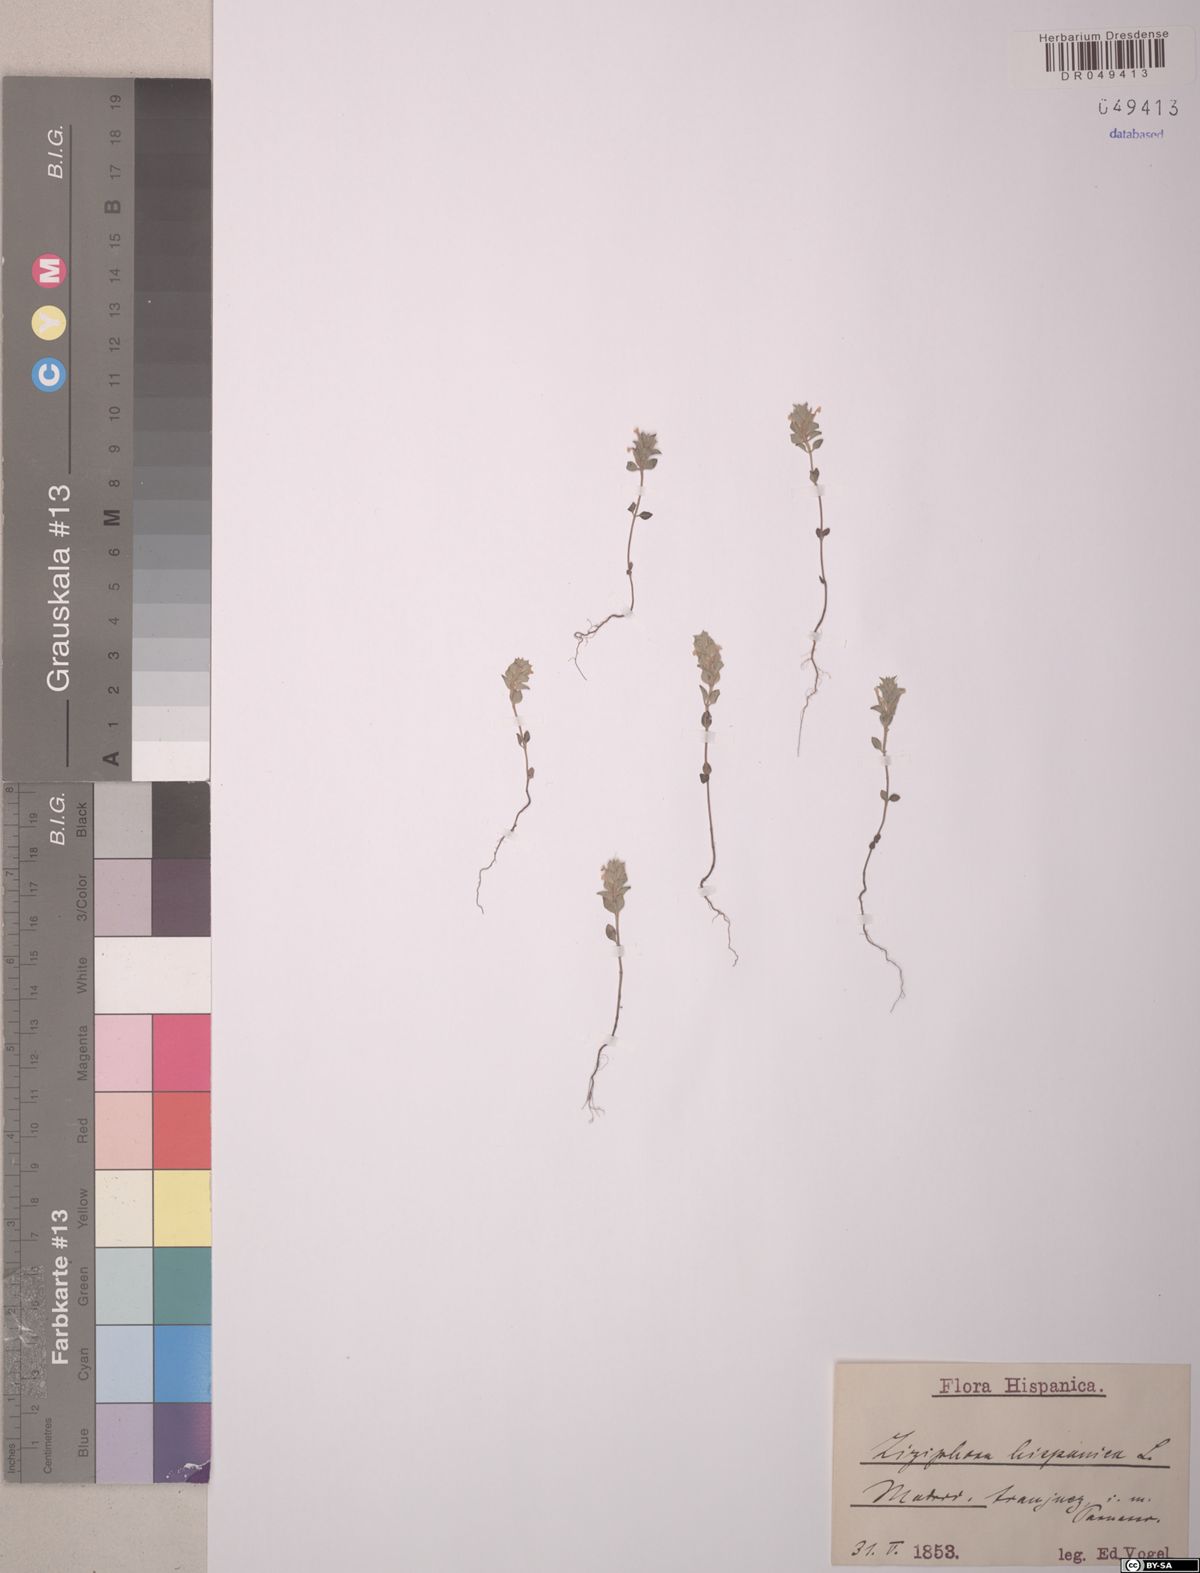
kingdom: Plantae
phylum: Tracheophyta
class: Magnoliopsida
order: Lamiales
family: Lamiaceae
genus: Ziziphora
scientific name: Ziziphora hispanica
